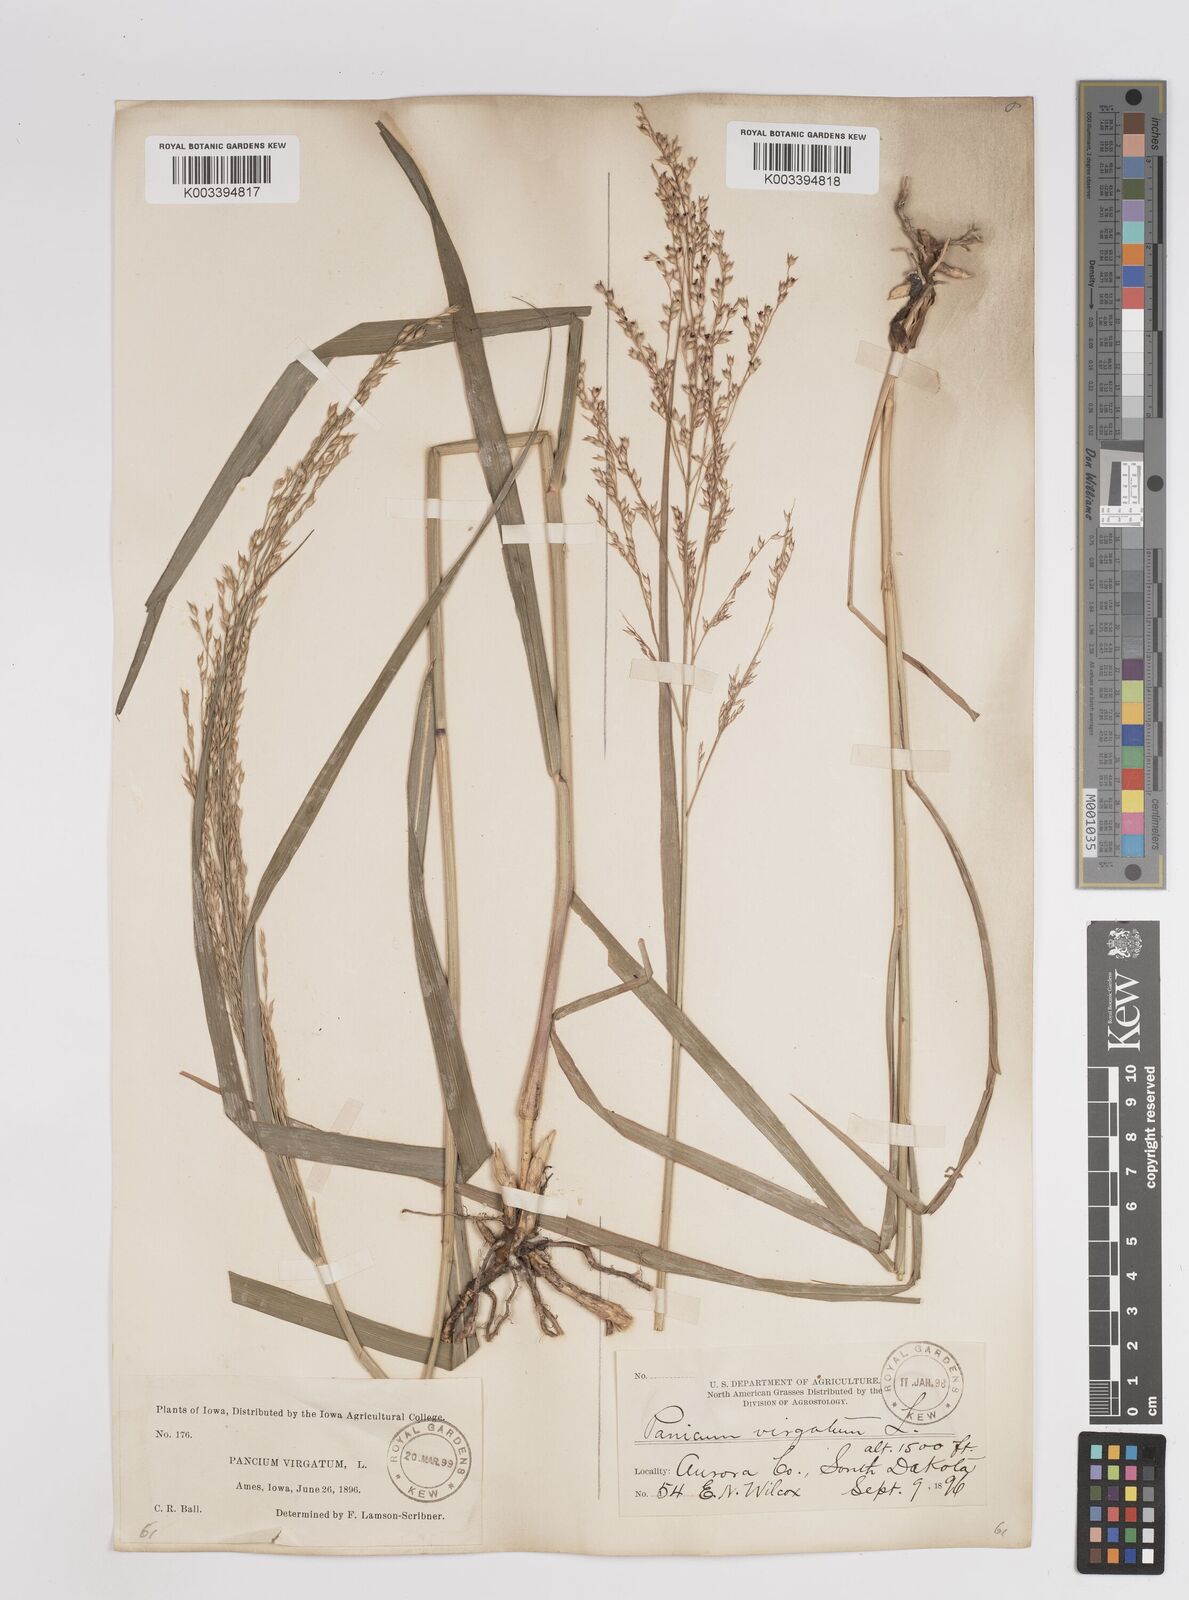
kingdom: Plantae
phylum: Tracheophyta
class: Liliopsida
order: Poales
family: Poaceae
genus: Panicum
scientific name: Panicum virgatum
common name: Switchgrass
